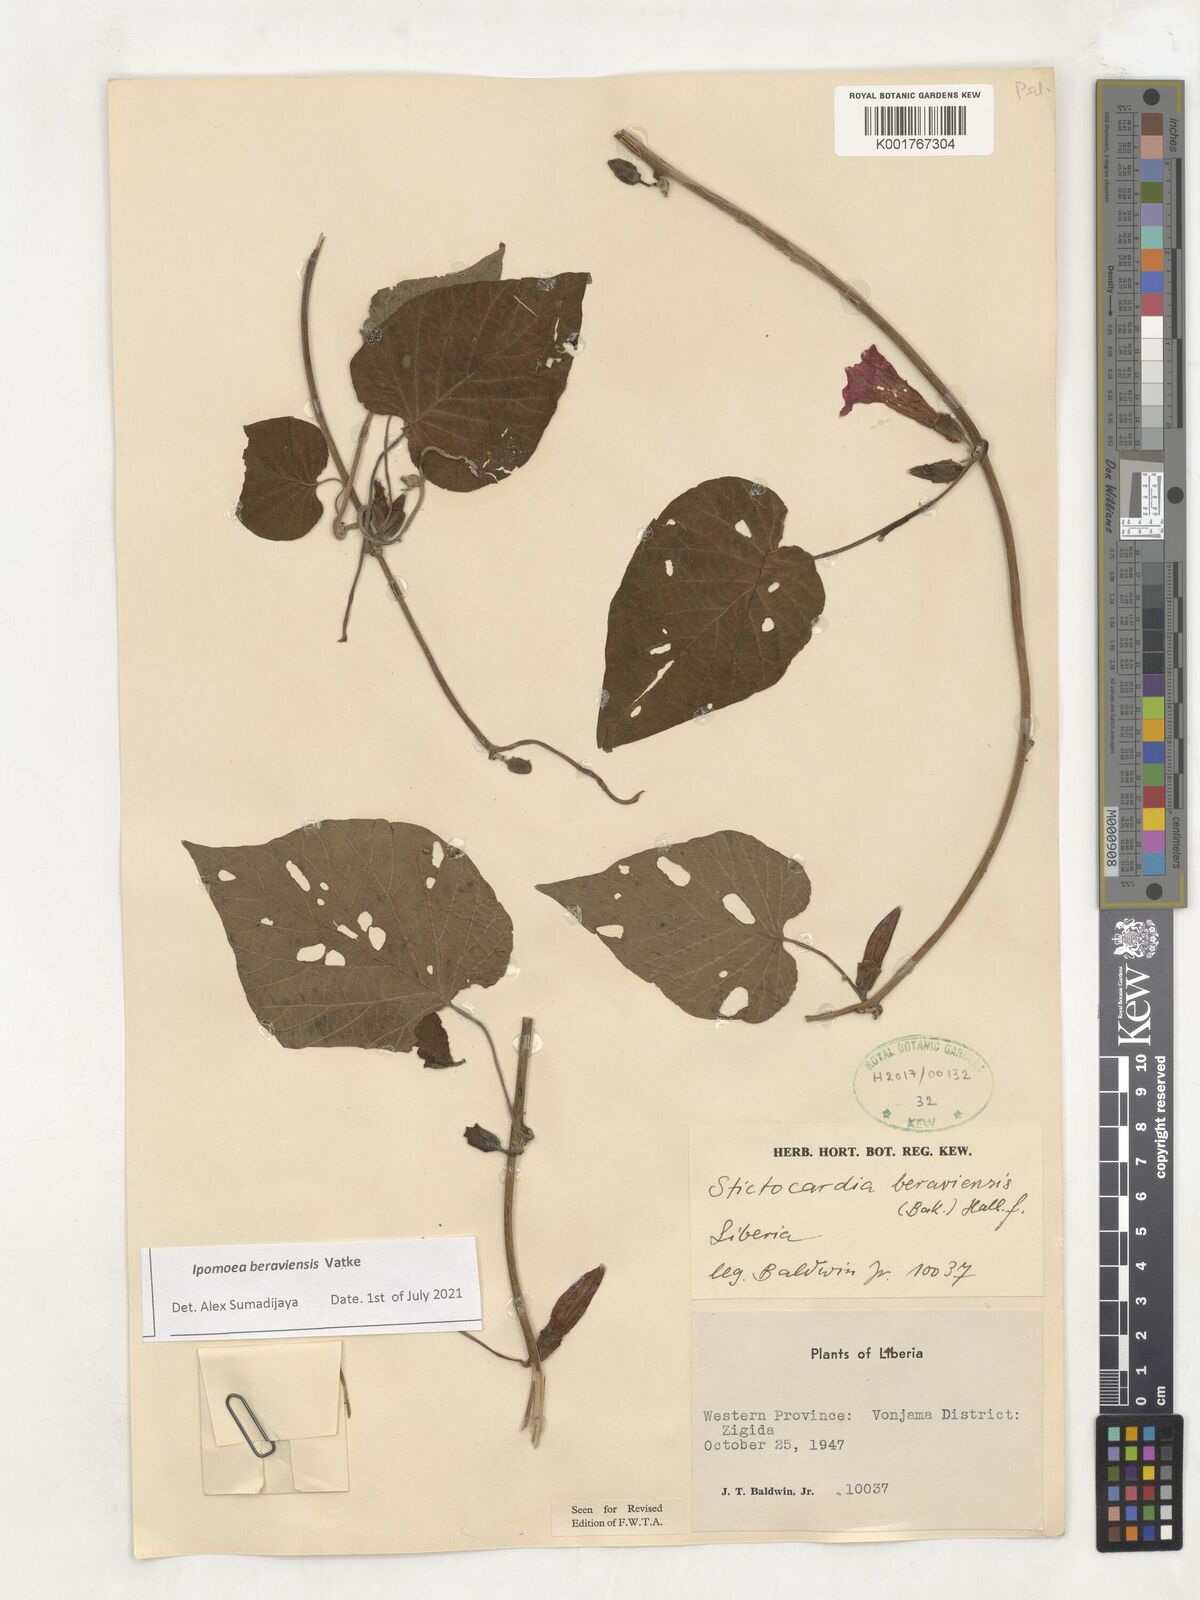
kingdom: Plantae
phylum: Tracheophyta
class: Magnoliopsida
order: Solanales
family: Convolvulaceae
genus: Stictocardia
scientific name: Stictocardia beraviensis
